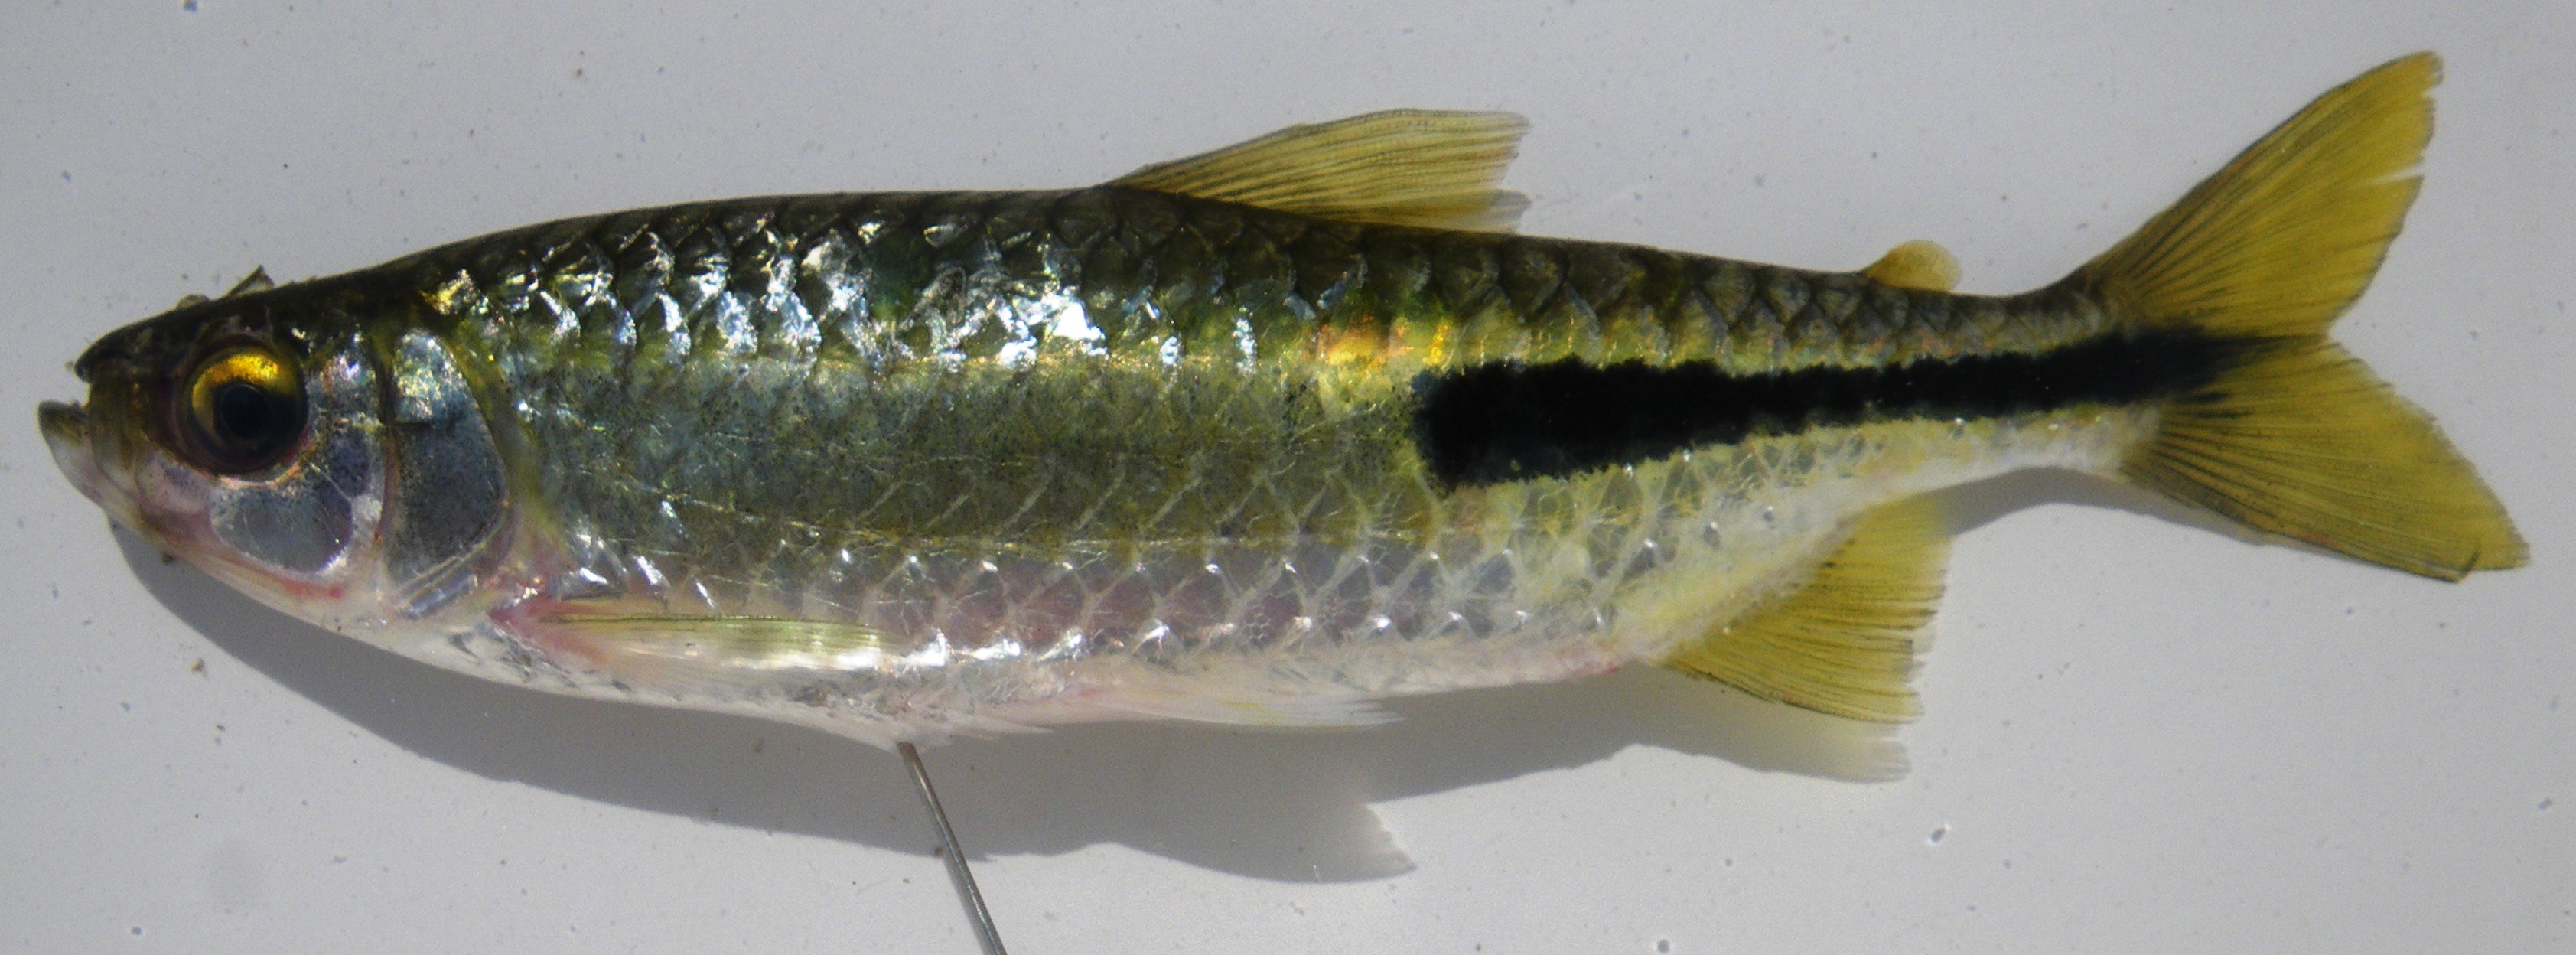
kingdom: Animalia
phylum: Chordata
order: Characiformes
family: Alestidae
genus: Brycinus
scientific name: Brycinus peringueyi
